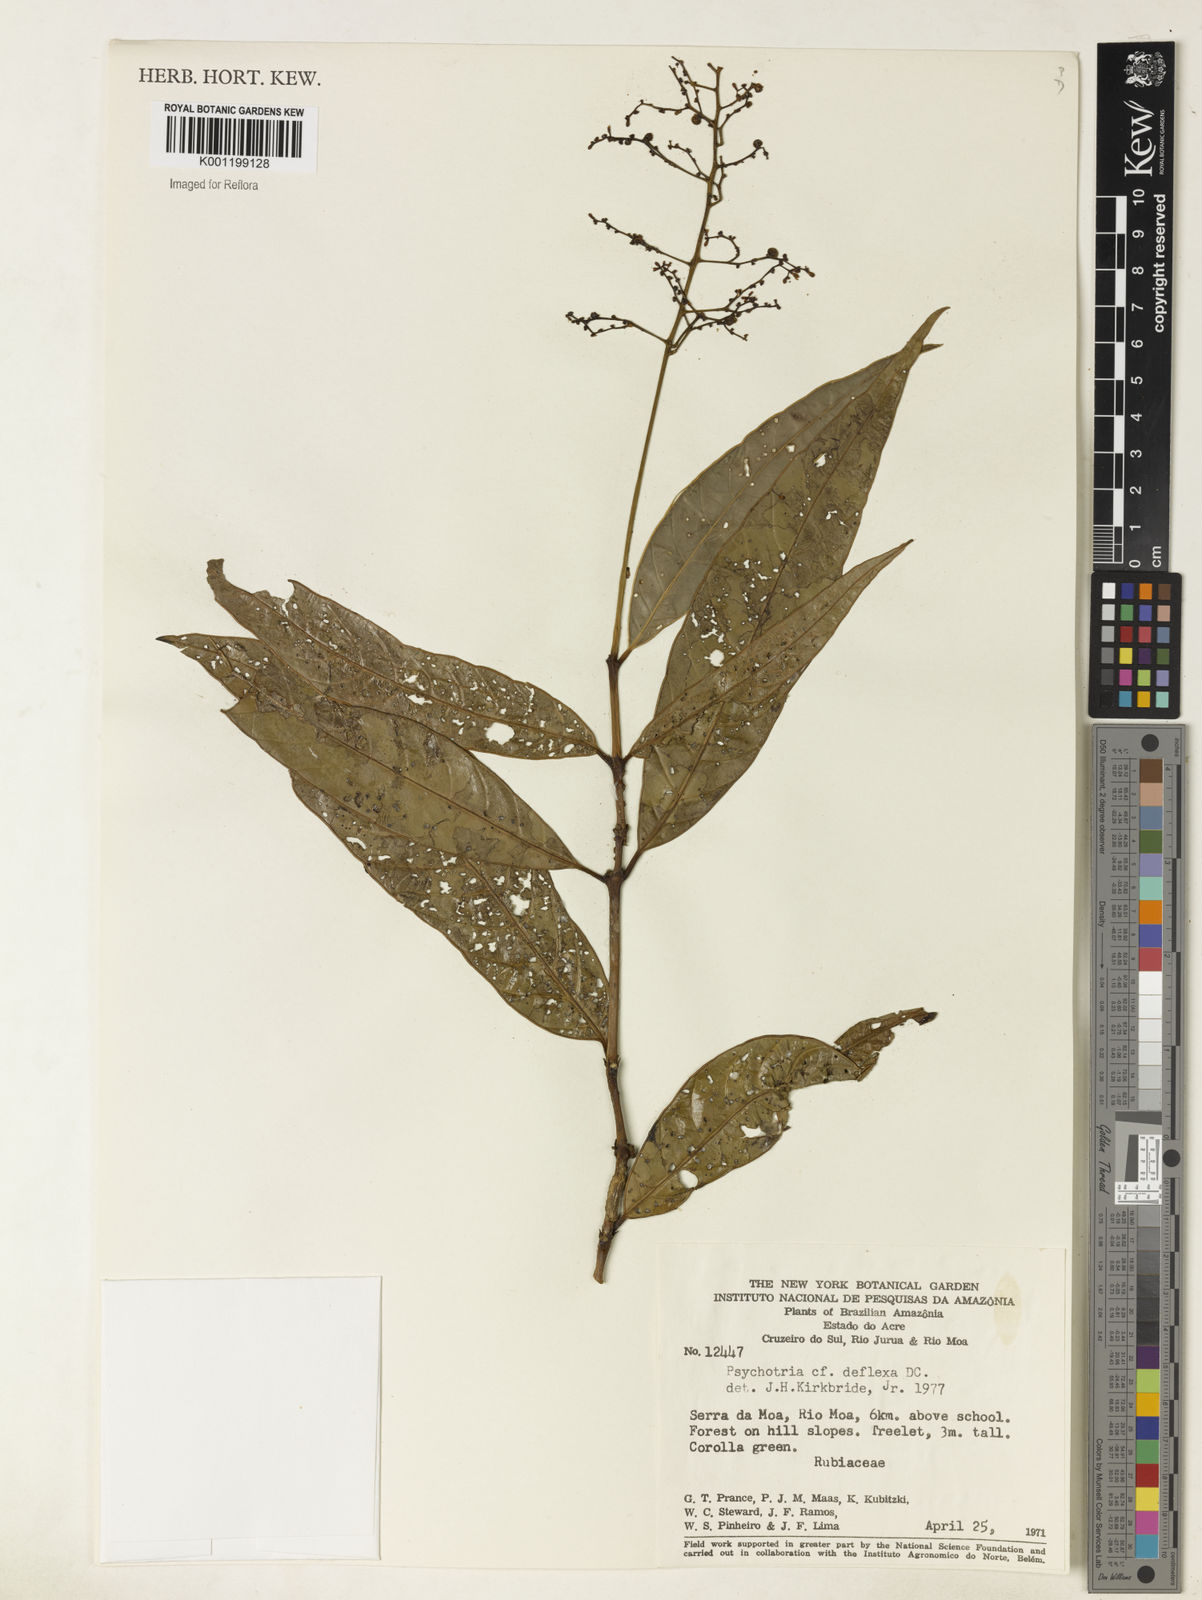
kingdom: Plantae
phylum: Tracheophyta
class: Magnoliopsida
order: Gentianales
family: Rubiaceae
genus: Psychotria
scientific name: Psychotria
